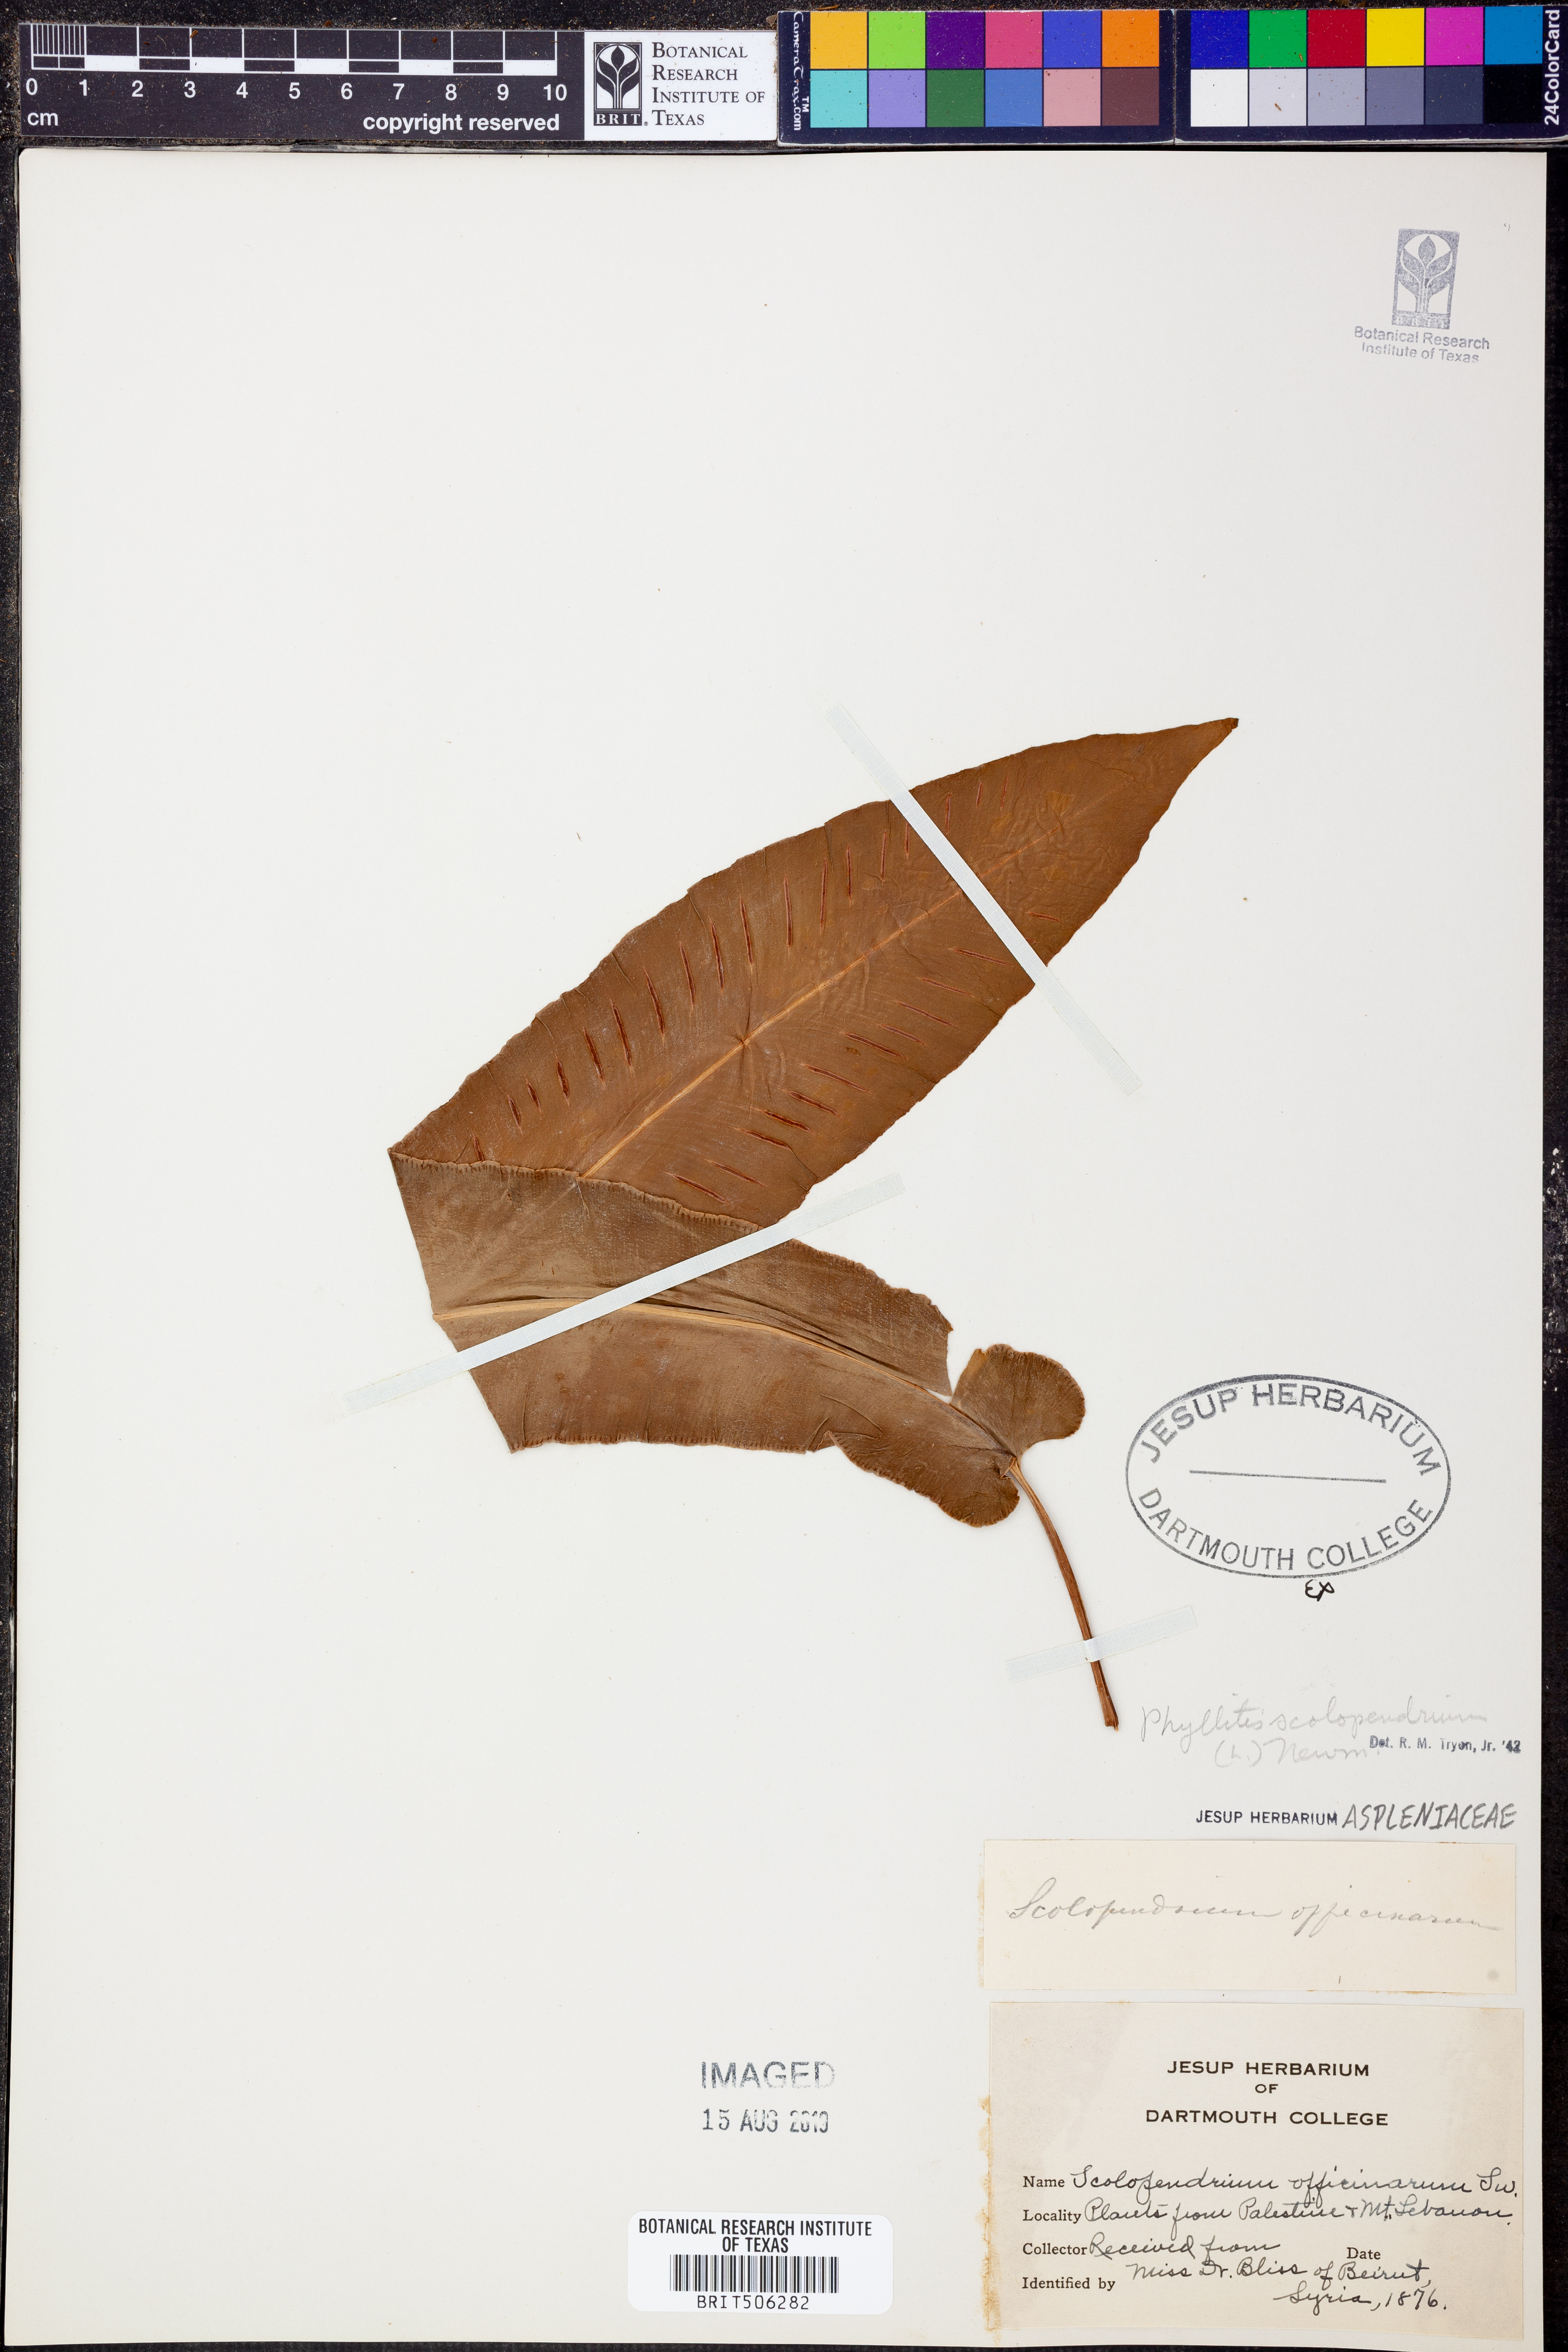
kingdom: Plantae
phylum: Tracheophyta
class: Polypodiopsida
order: Polypodiales
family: Aspleniaceae
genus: Asplenium
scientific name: Asplenium scolopendrium
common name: Hart's-tongue fern
